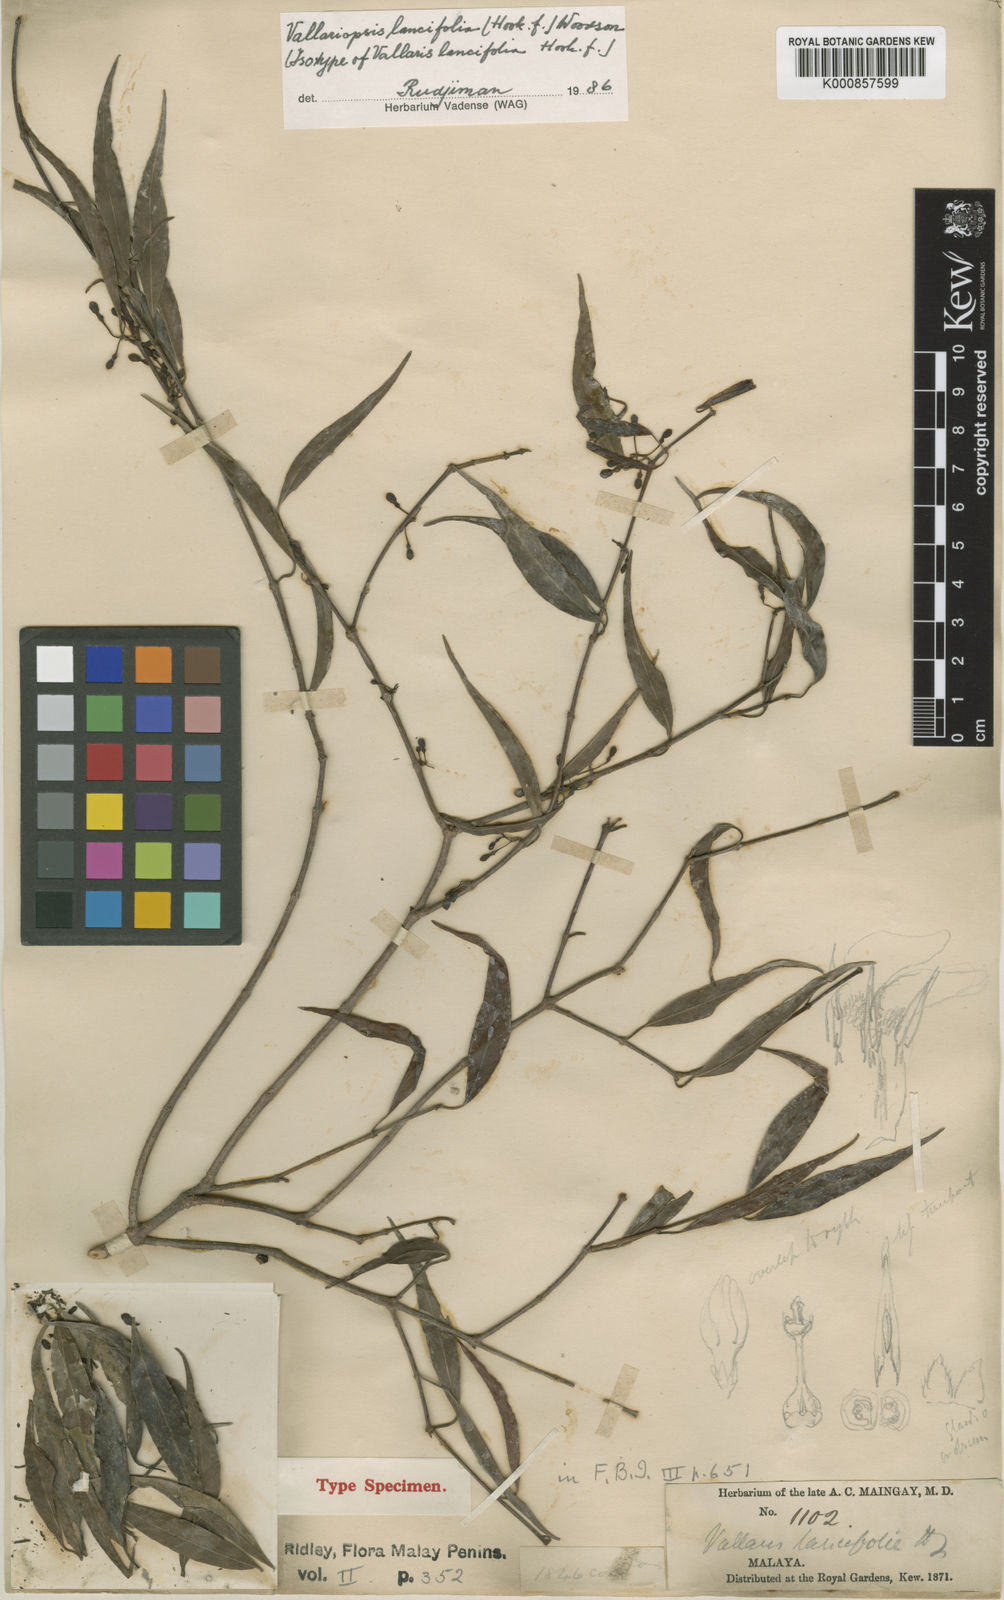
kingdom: Plantae
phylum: Tracheophyta
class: Magnoliopsida
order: Gentianales
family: Apocynaceae
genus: Micrechites
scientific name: Micrechites lancifolius
